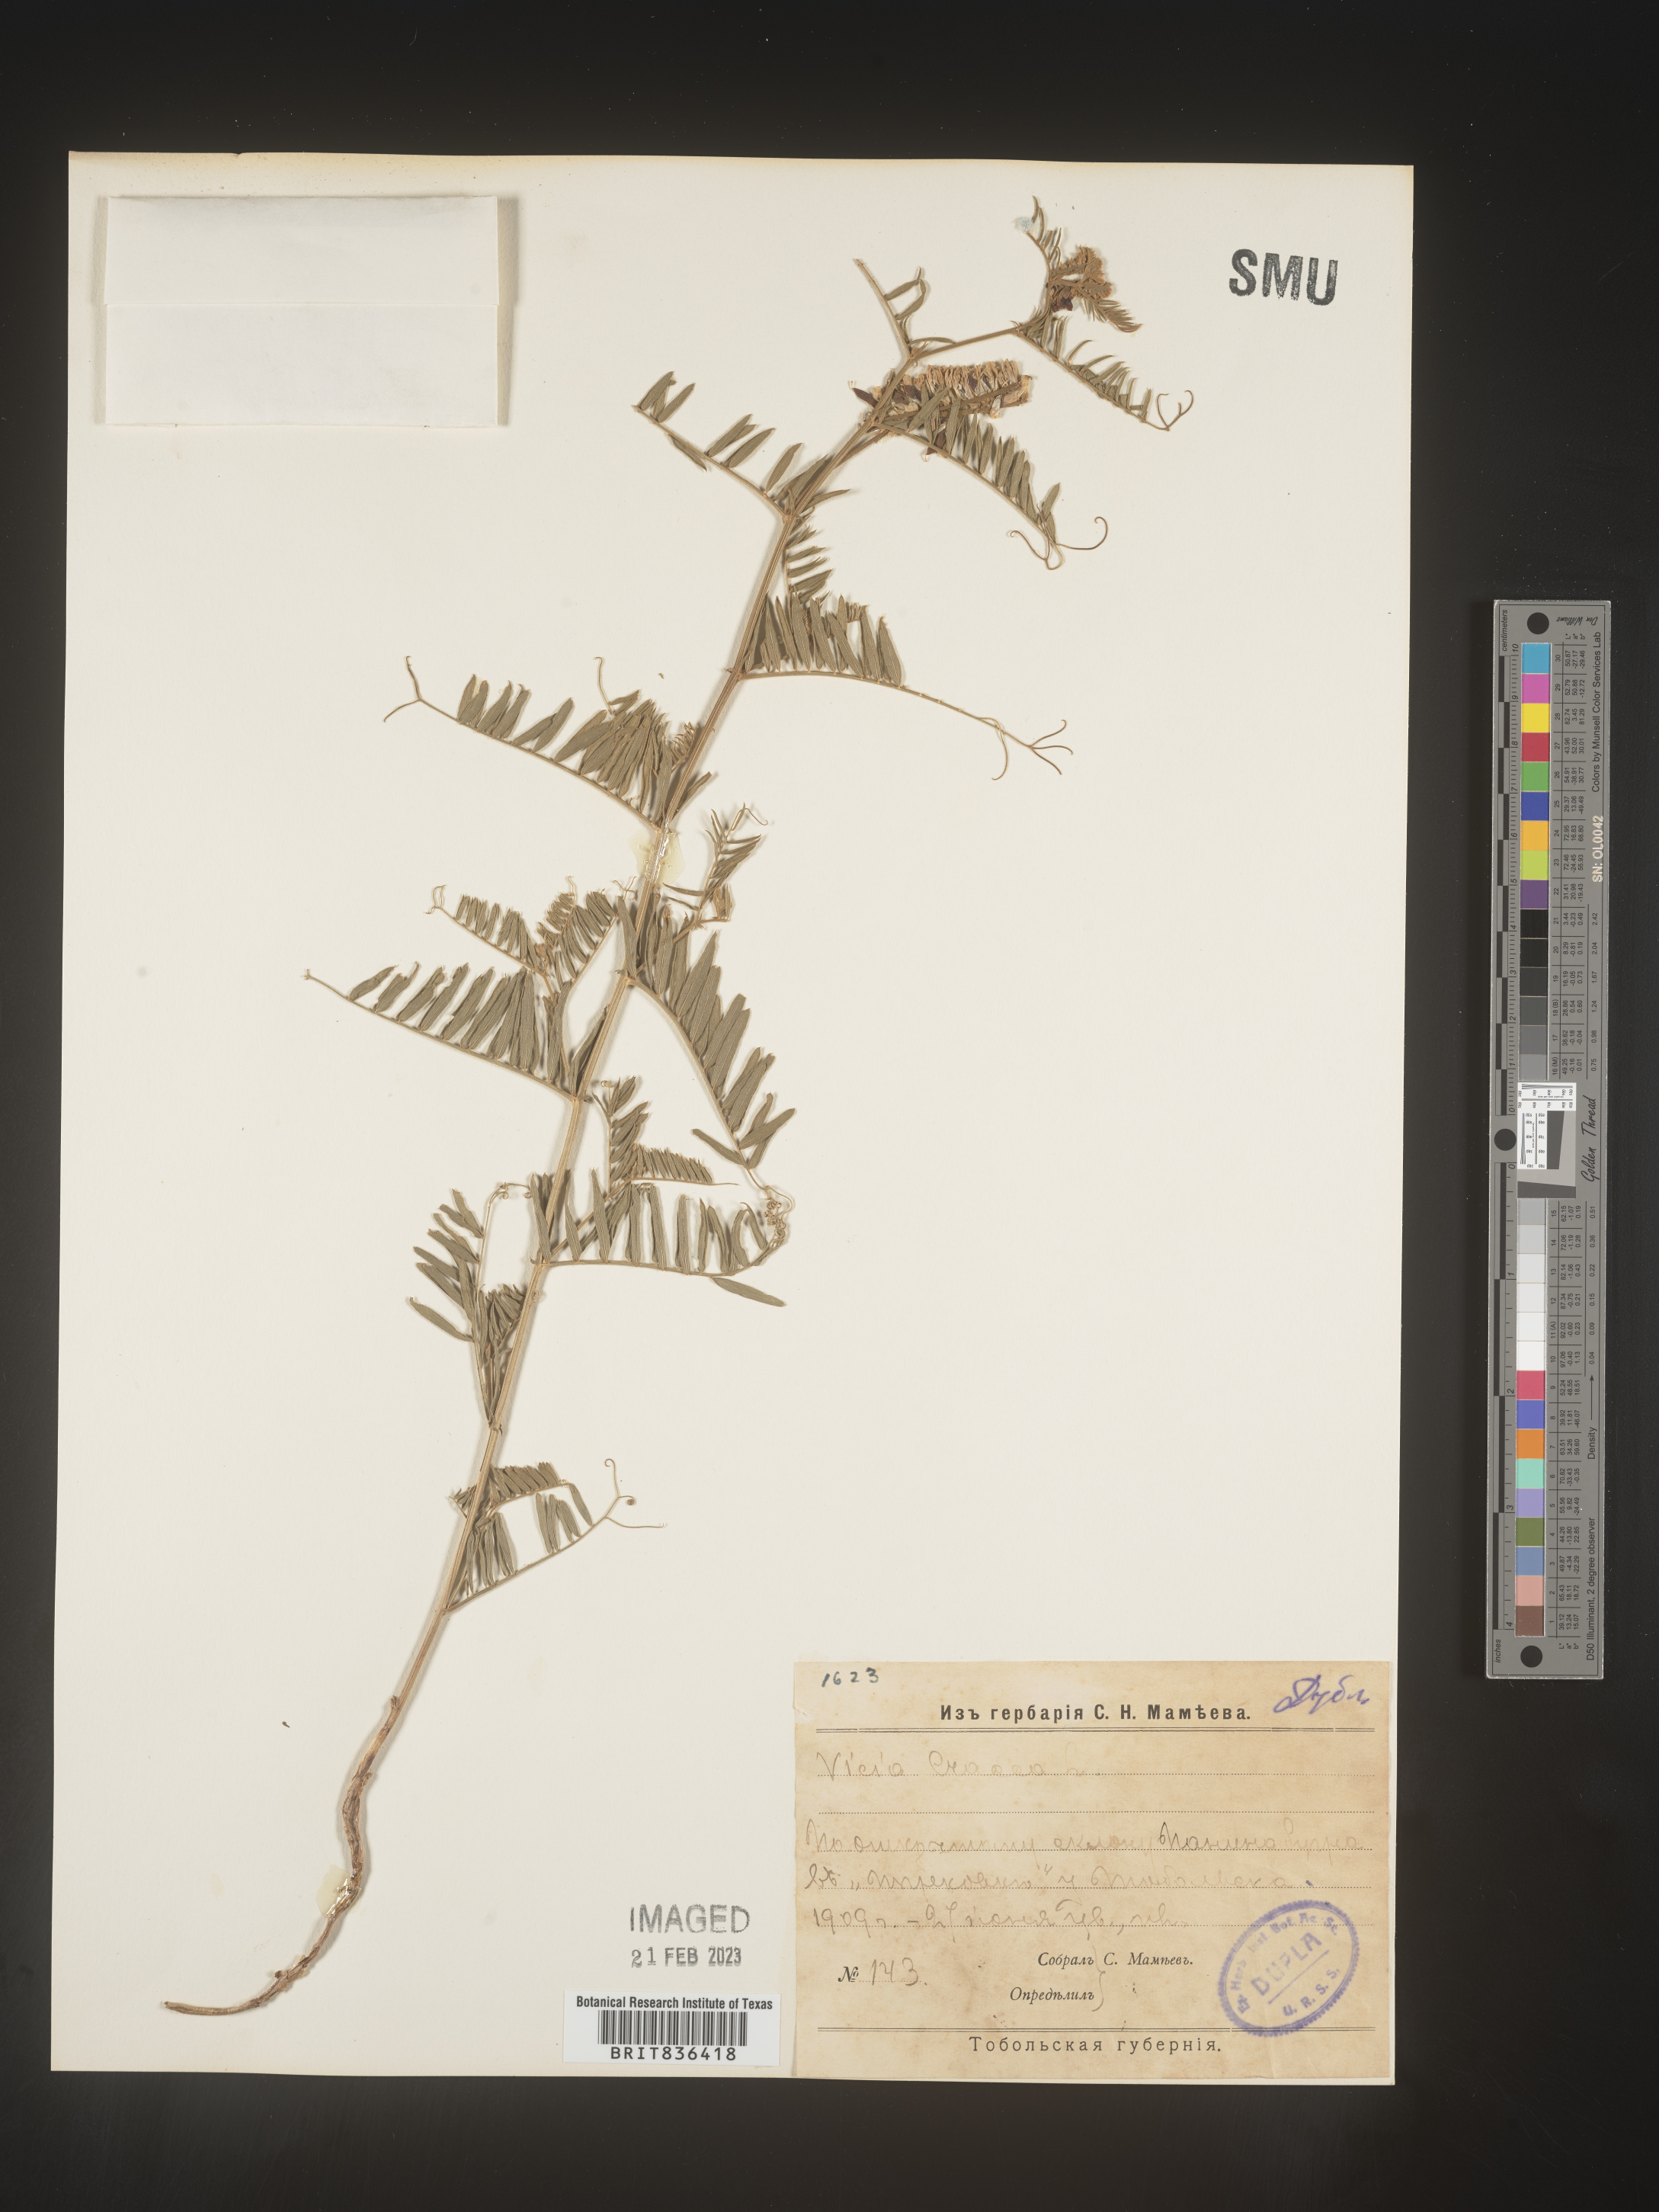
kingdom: Plantae
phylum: Tracheophyta
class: Magnoliopsida
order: Fabales
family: Fabaceae
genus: Vicia
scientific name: Vicia
